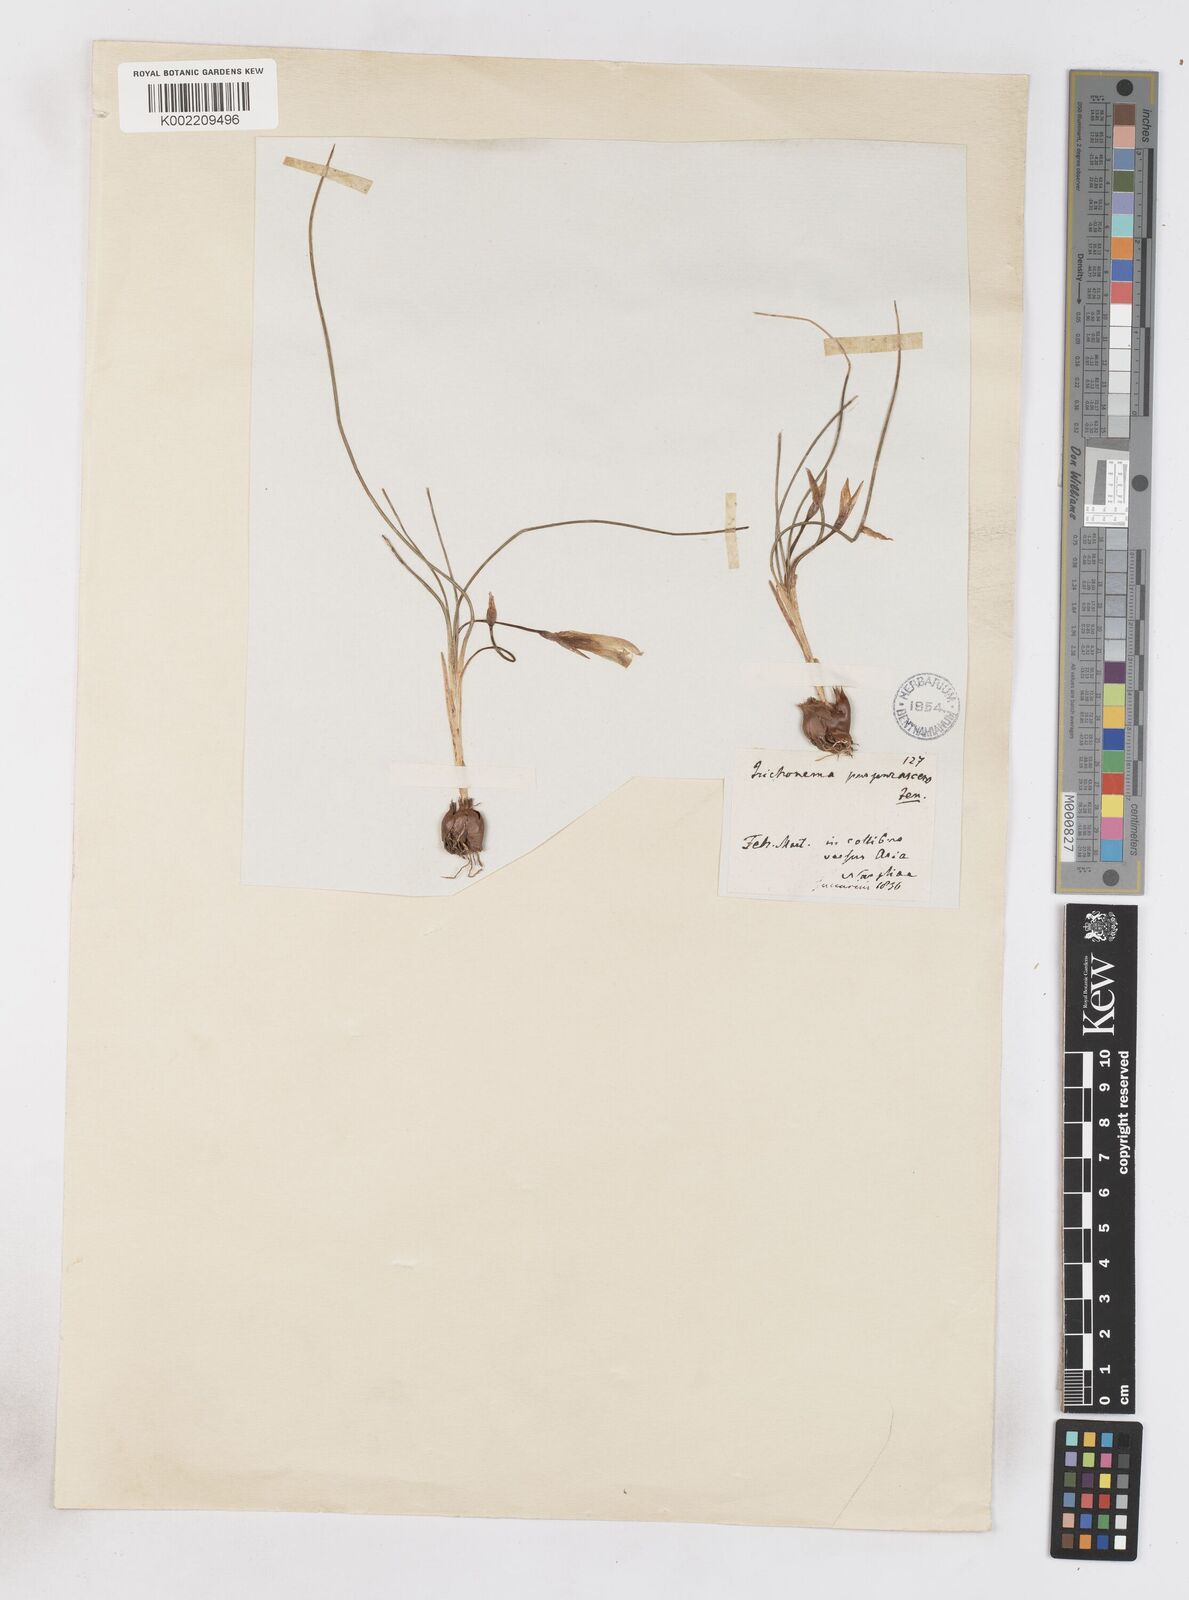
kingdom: Plantae
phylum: Tracheophyta
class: Liliopsida
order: Asparagales
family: Iridaceae
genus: Romulea
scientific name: Romulea bulbocodium
